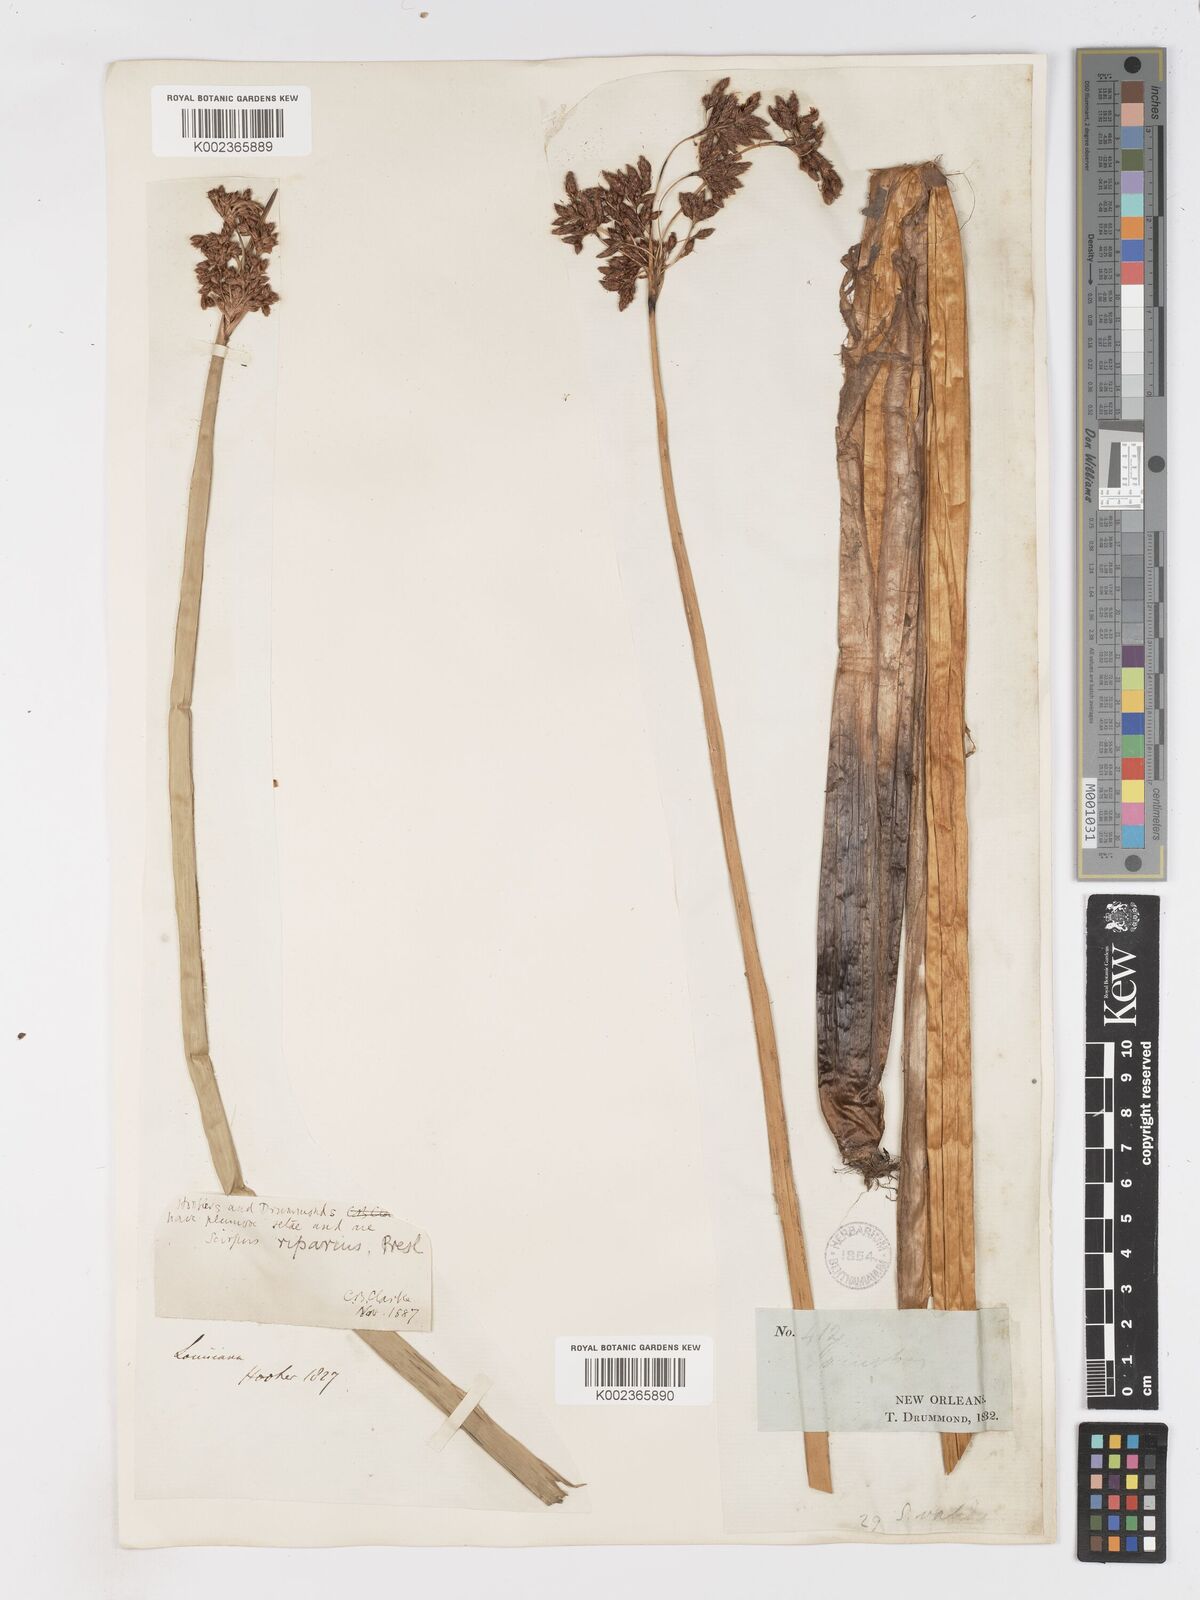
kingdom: Plantae
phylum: Tracheophyta
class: Liliopsida
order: Poales
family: Cyperaceae
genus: Schoenoplectus
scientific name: Schoenoplectus californicus
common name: California bulrush
